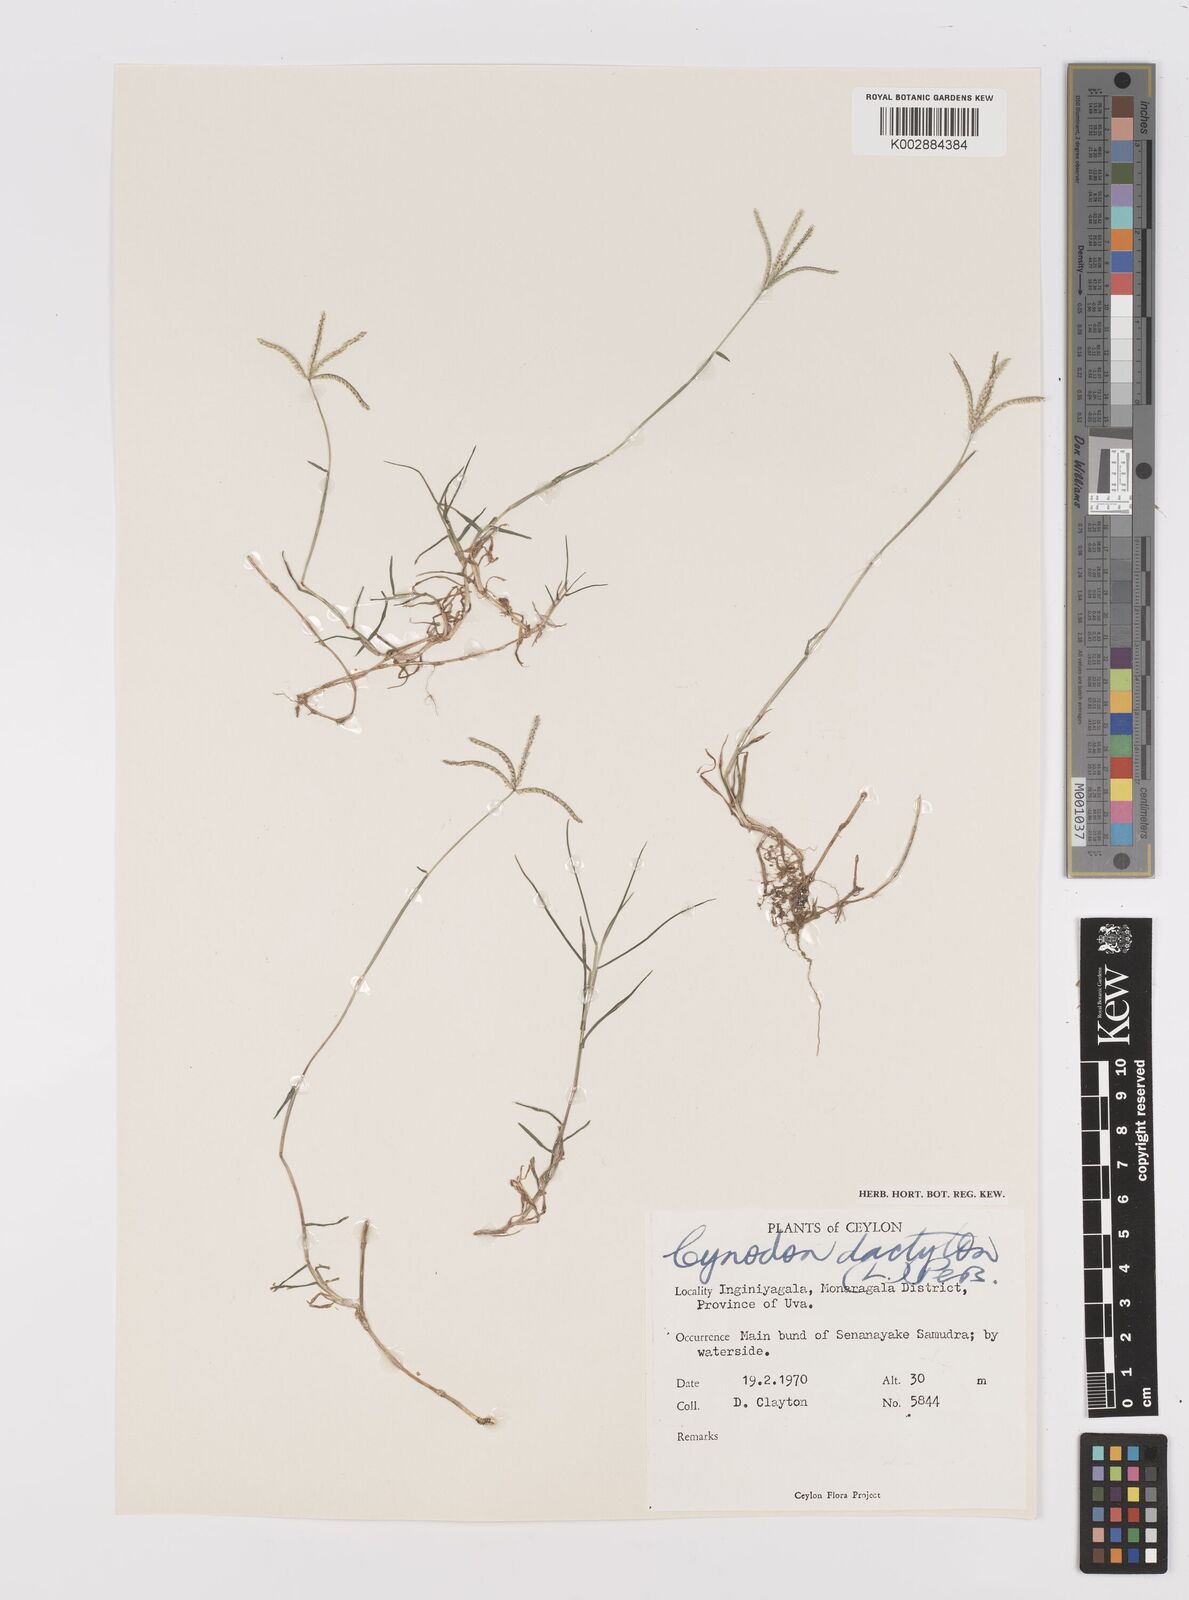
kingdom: Plantae
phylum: Tracheophyta
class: Liliopsida
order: Poales
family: Poaceae
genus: Cynodon
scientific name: Cynodon dactylon
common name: Bermuda grass
